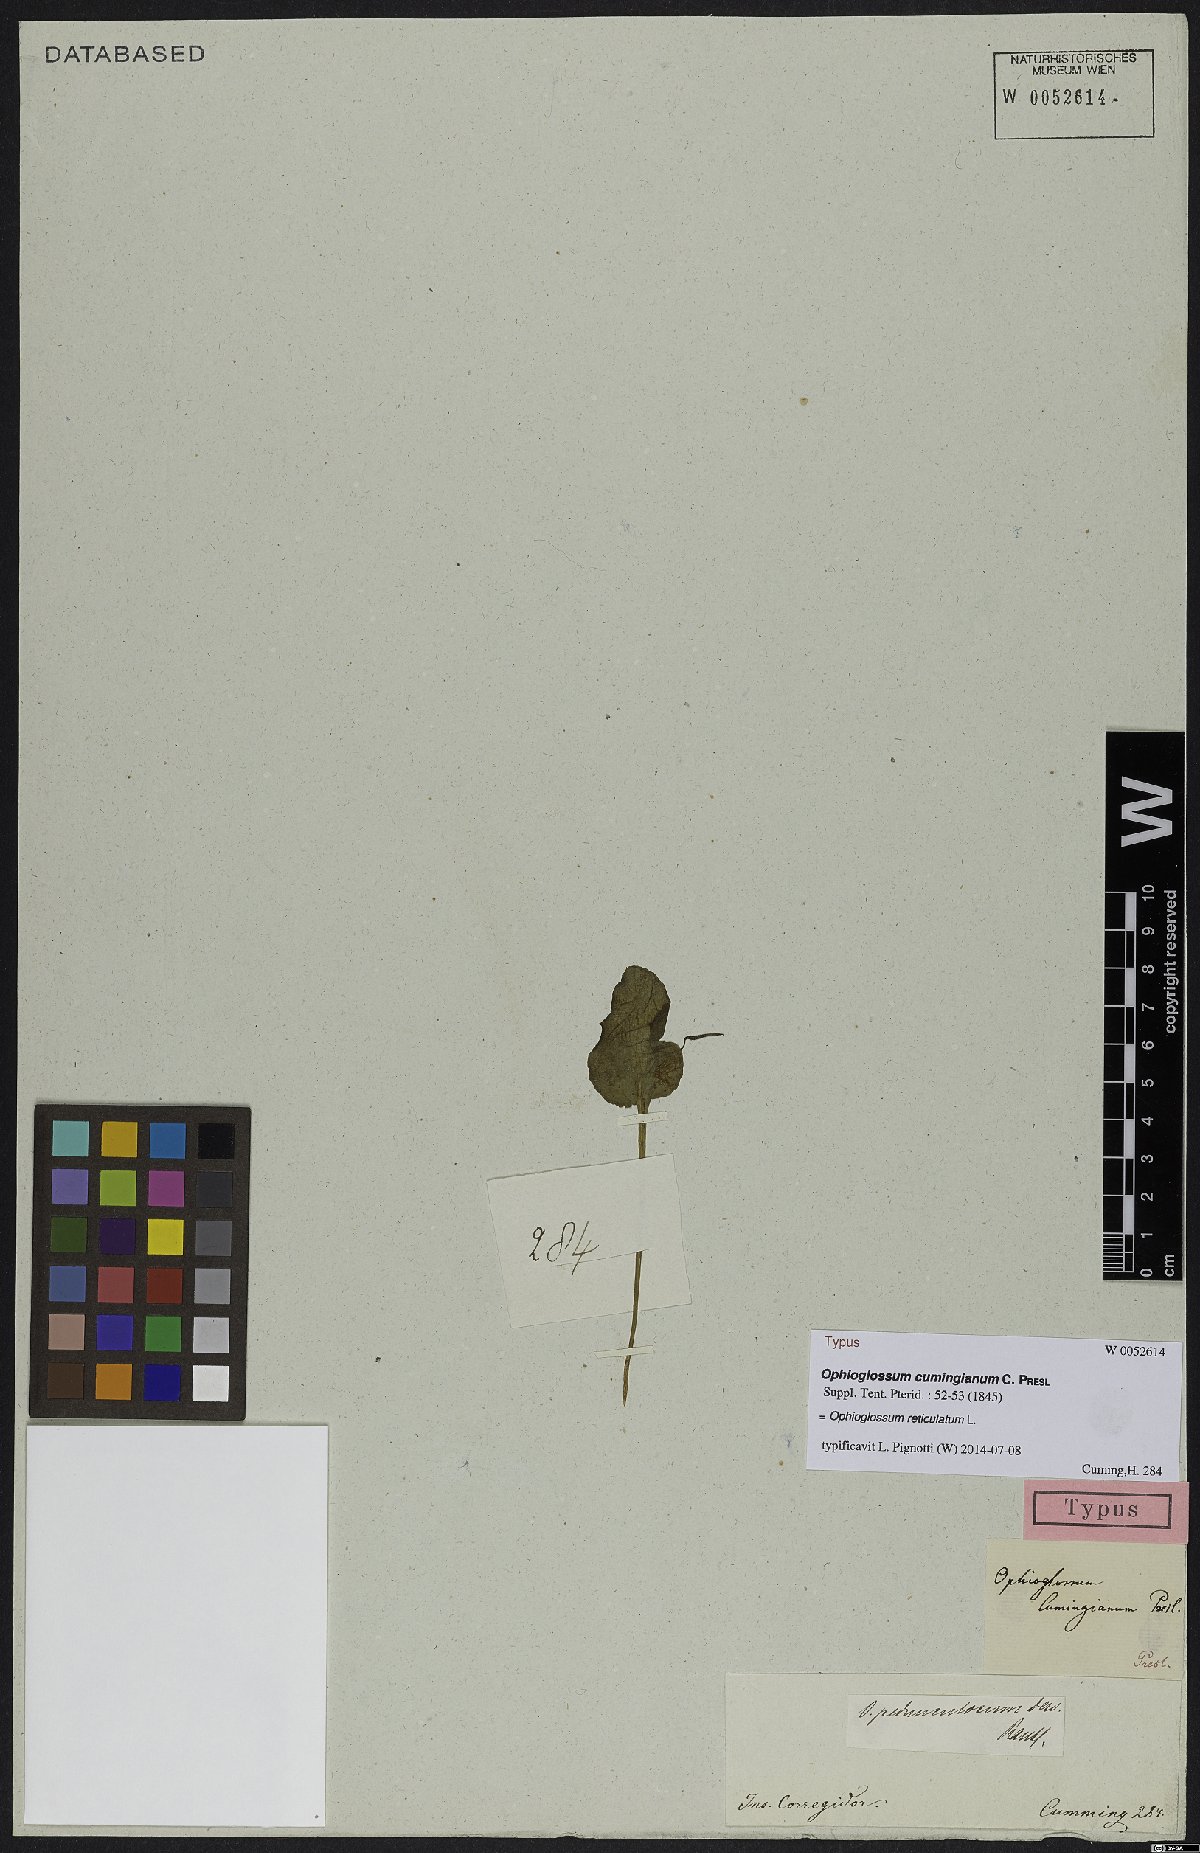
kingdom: Plantae
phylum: Tracheophyta
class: Polypodiopsida
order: Ophioglossales
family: Ophioglossaceae
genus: Ophioglossum
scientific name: Ophioglossum reticulatum
